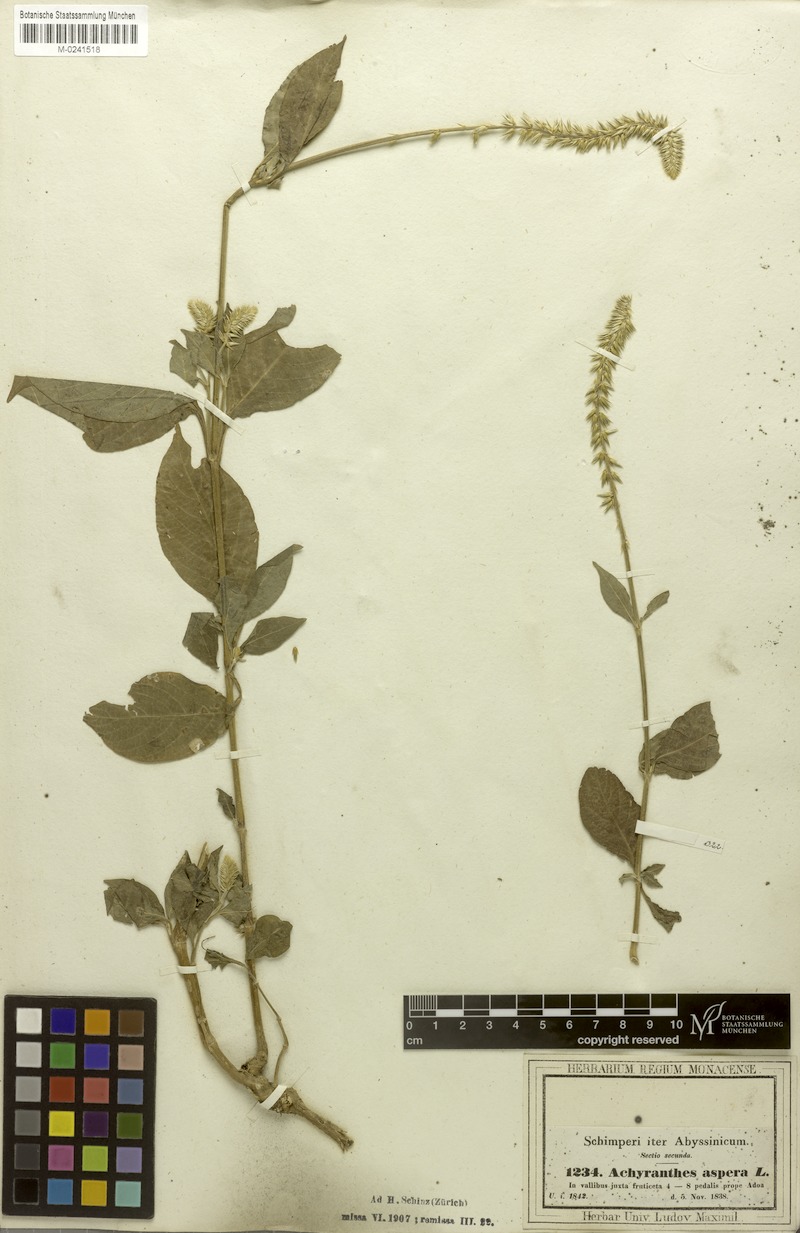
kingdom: Plantae
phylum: Tracheophyta
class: Magnoliopsida
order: Caryophyllales
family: Amaranthaceae
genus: Achyranthes
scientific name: Achyranthes aspera
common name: Devil's horsewhip
